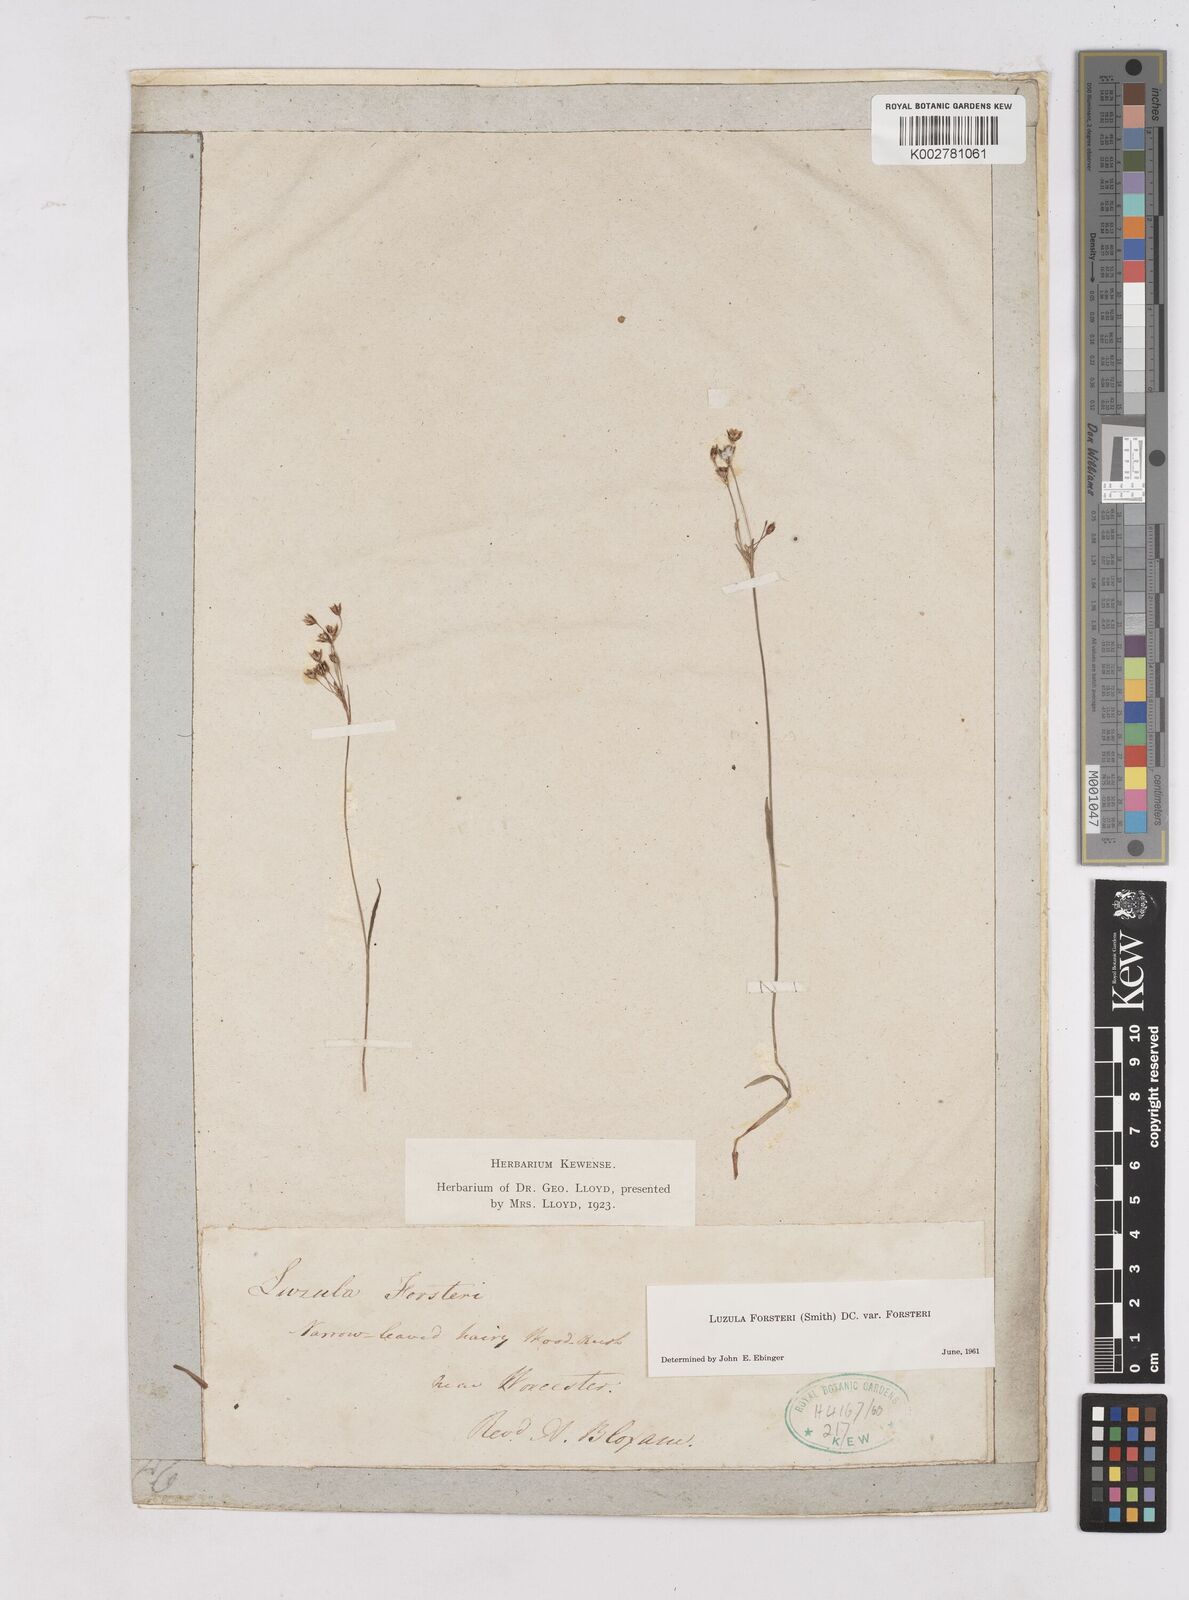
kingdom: Plantae
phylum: Tracheophyta
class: Liliopsida
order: Poales
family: Juncaceae
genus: Luzula
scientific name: Luzula forsteri
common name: Southern wood-rush
